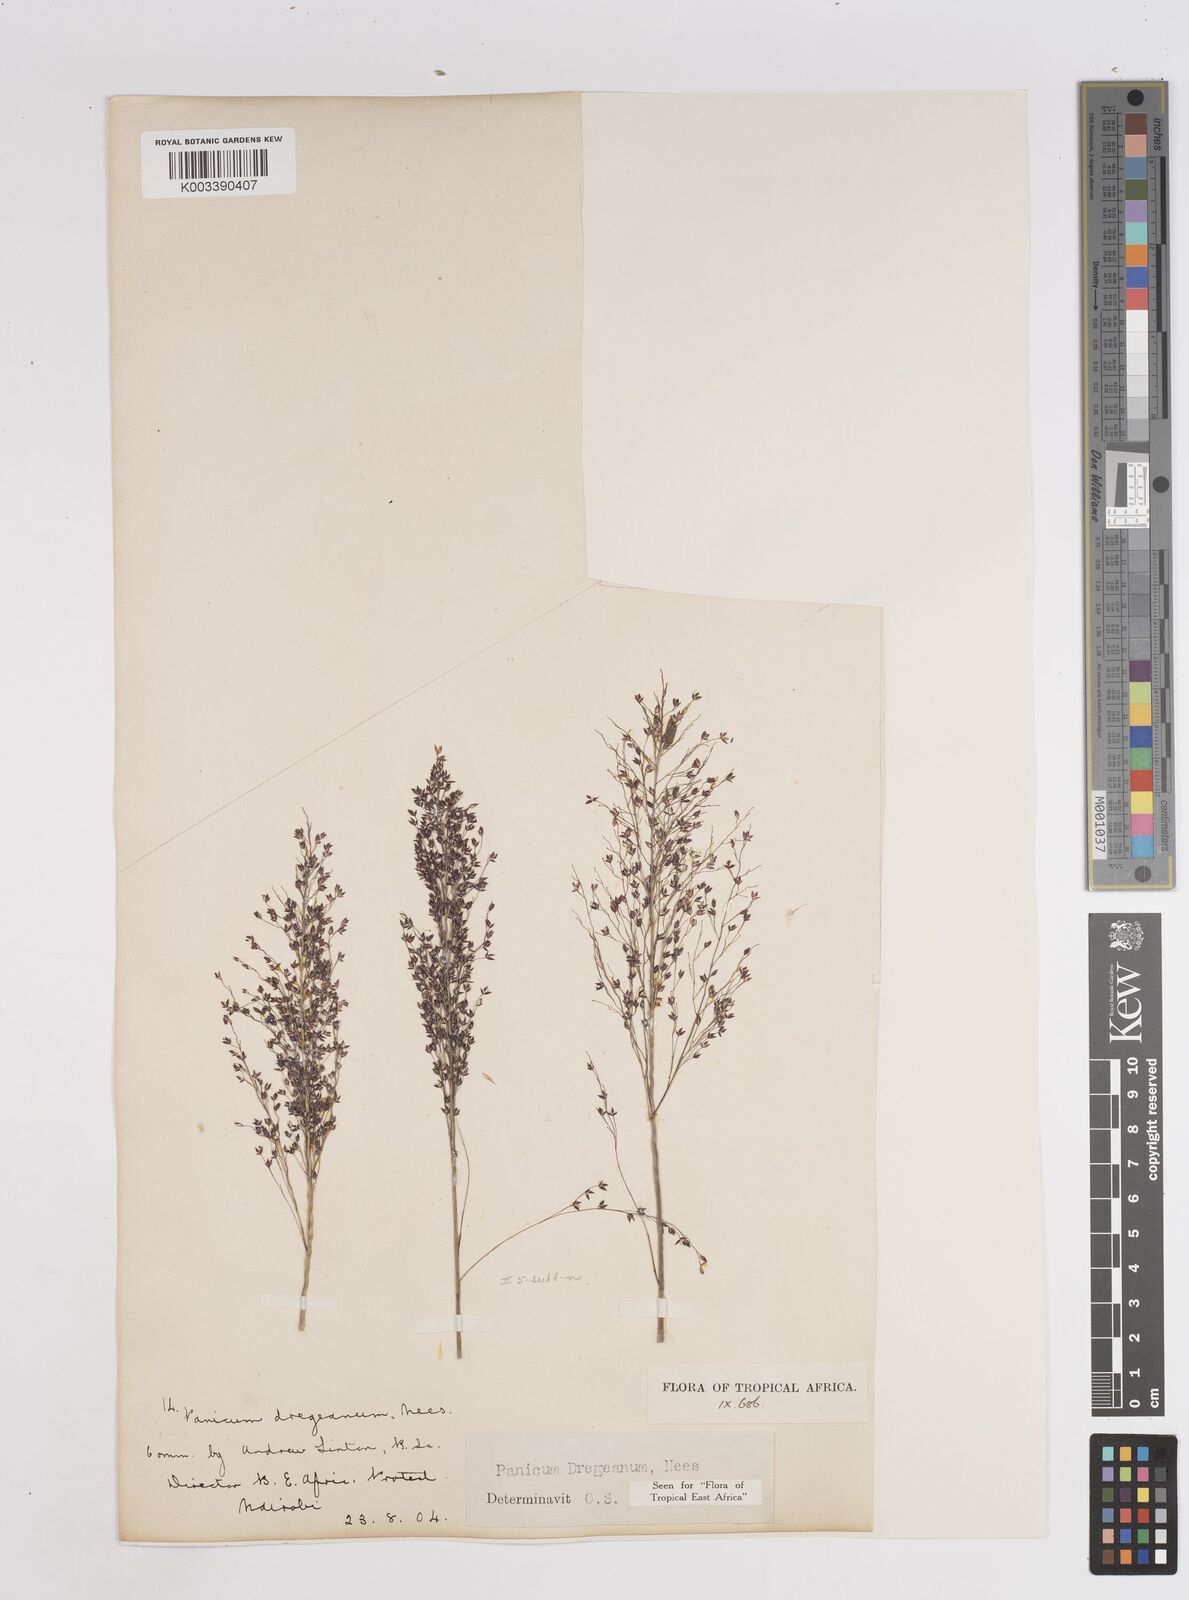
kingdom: Plantae
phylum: Tracheophyta
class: Liliopsida
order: Poales
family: Poaceae
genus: Panicum
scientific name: Panicum dregeanum
